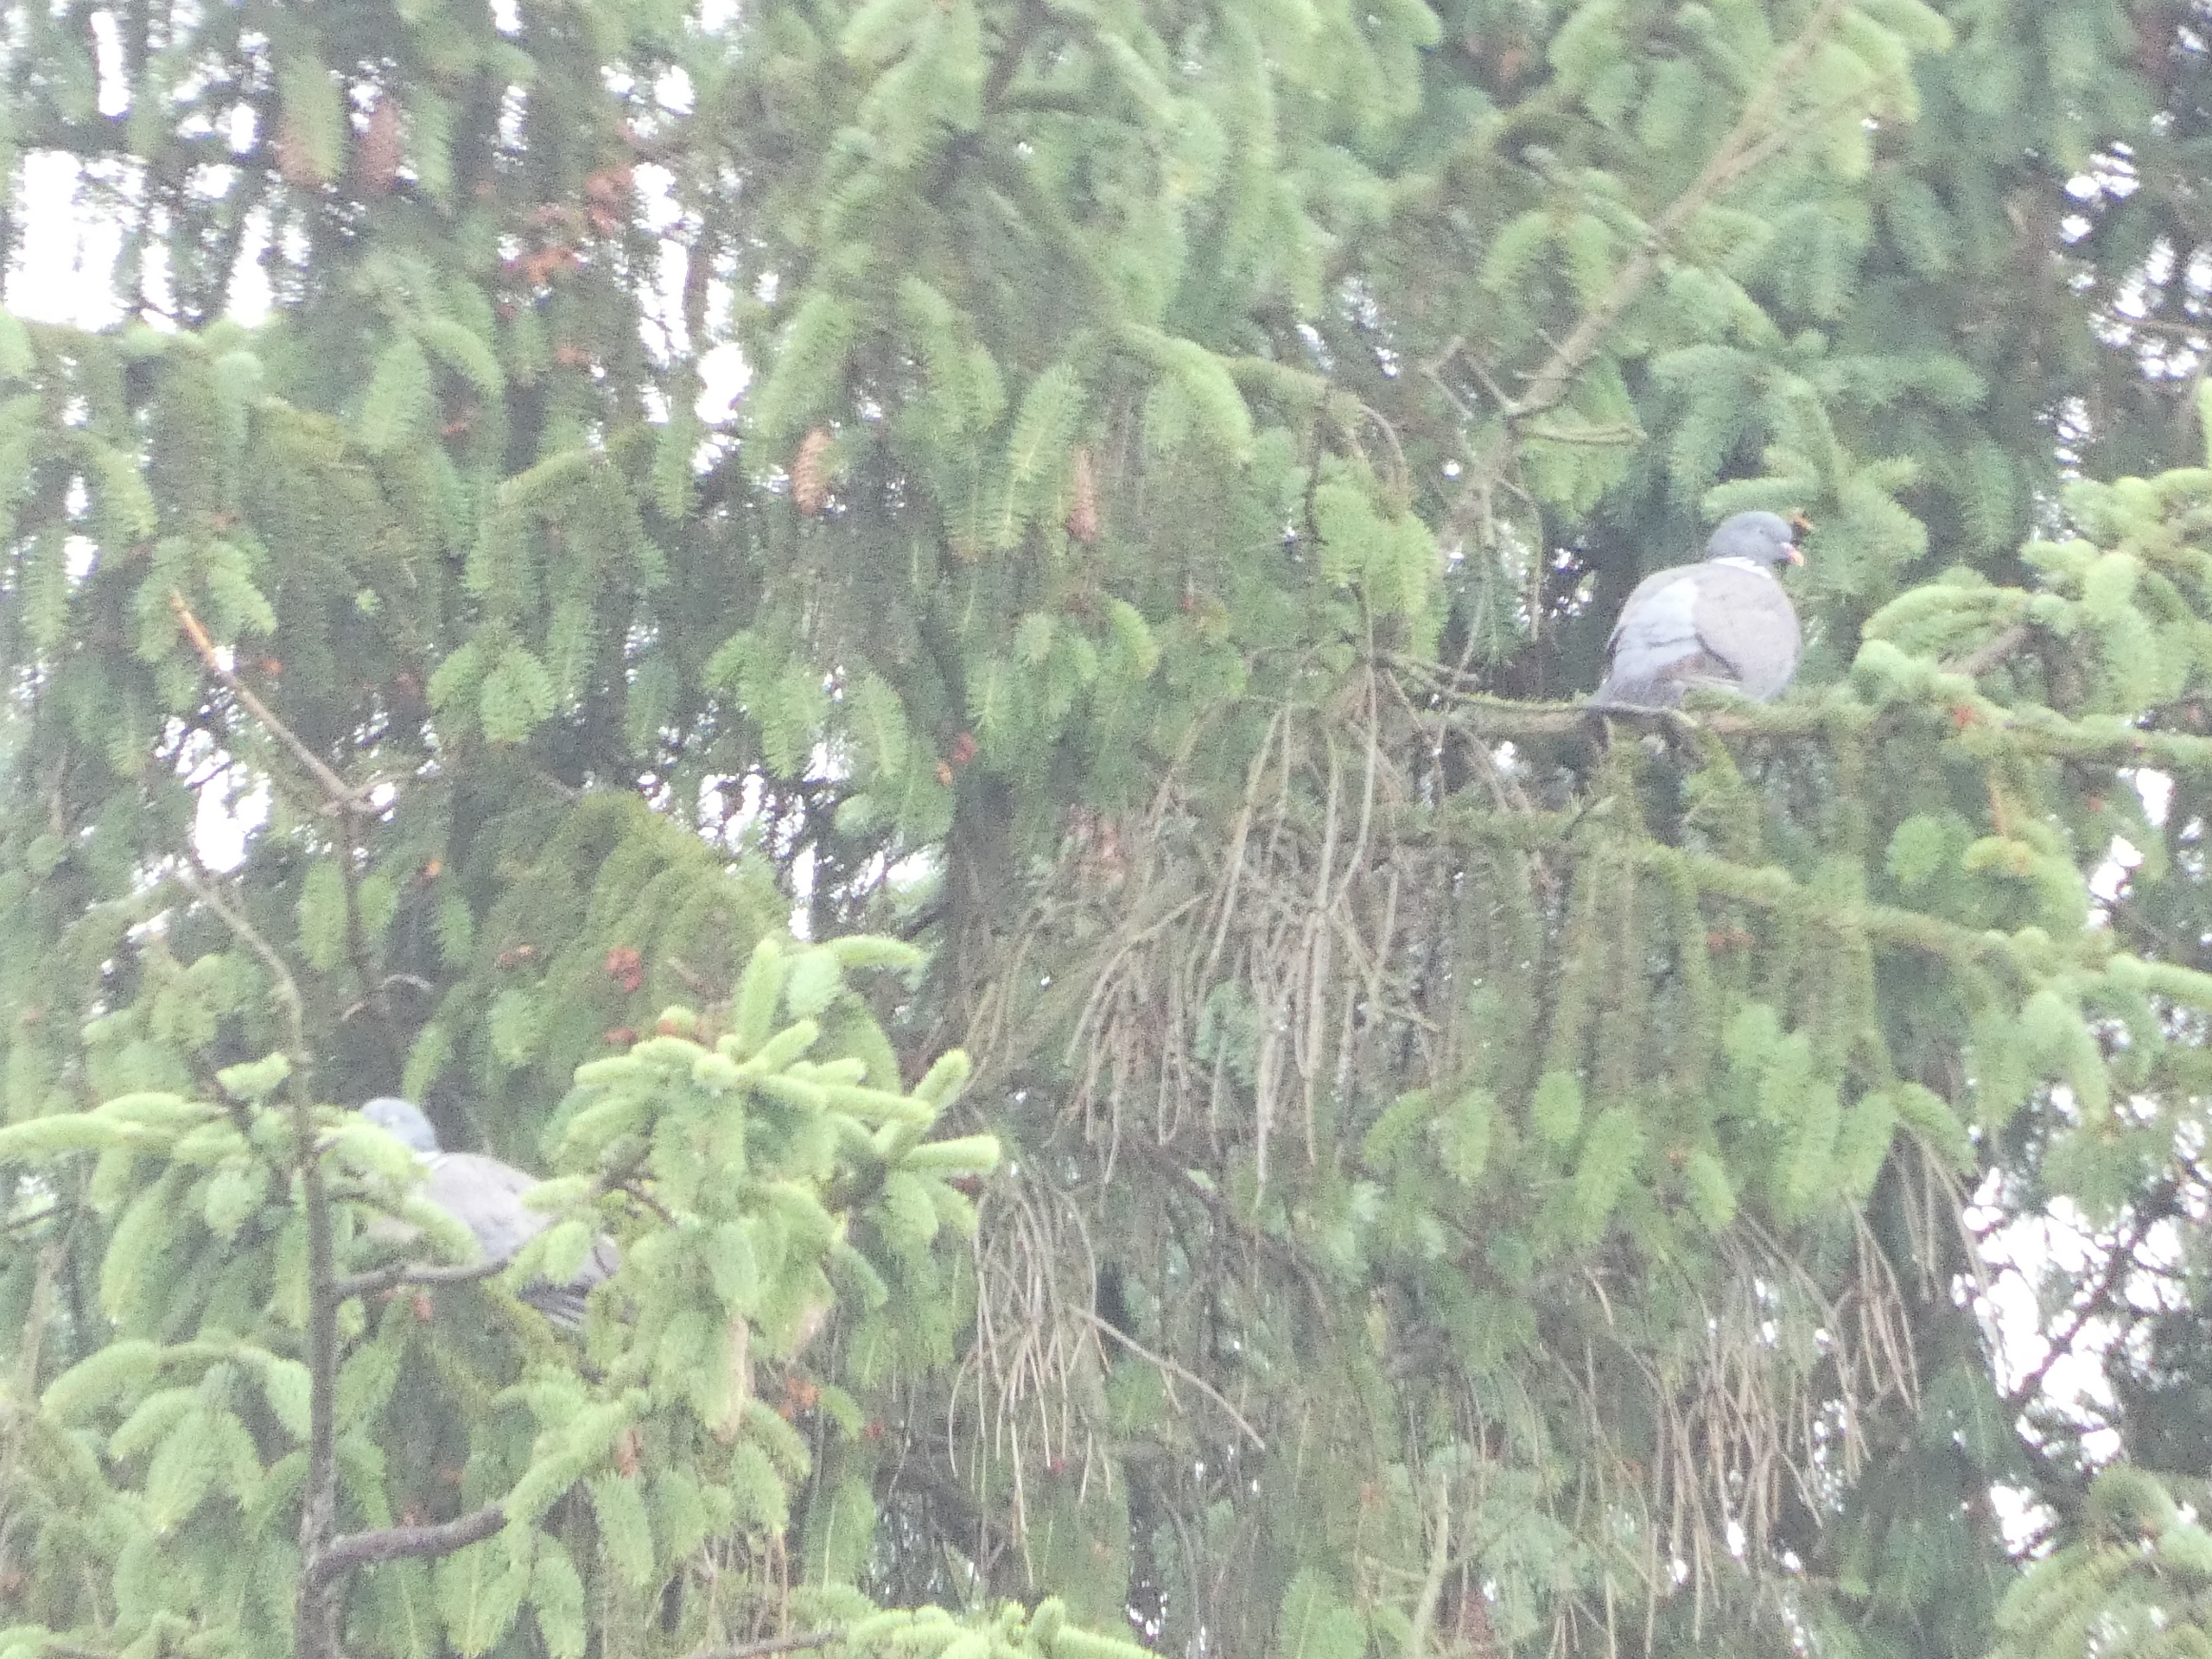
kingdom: Animalia
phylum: Chordata
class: Aves
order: Columbiformes
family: Columbidae
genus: Columba
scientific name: Columba palumbus
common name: Ringdue
